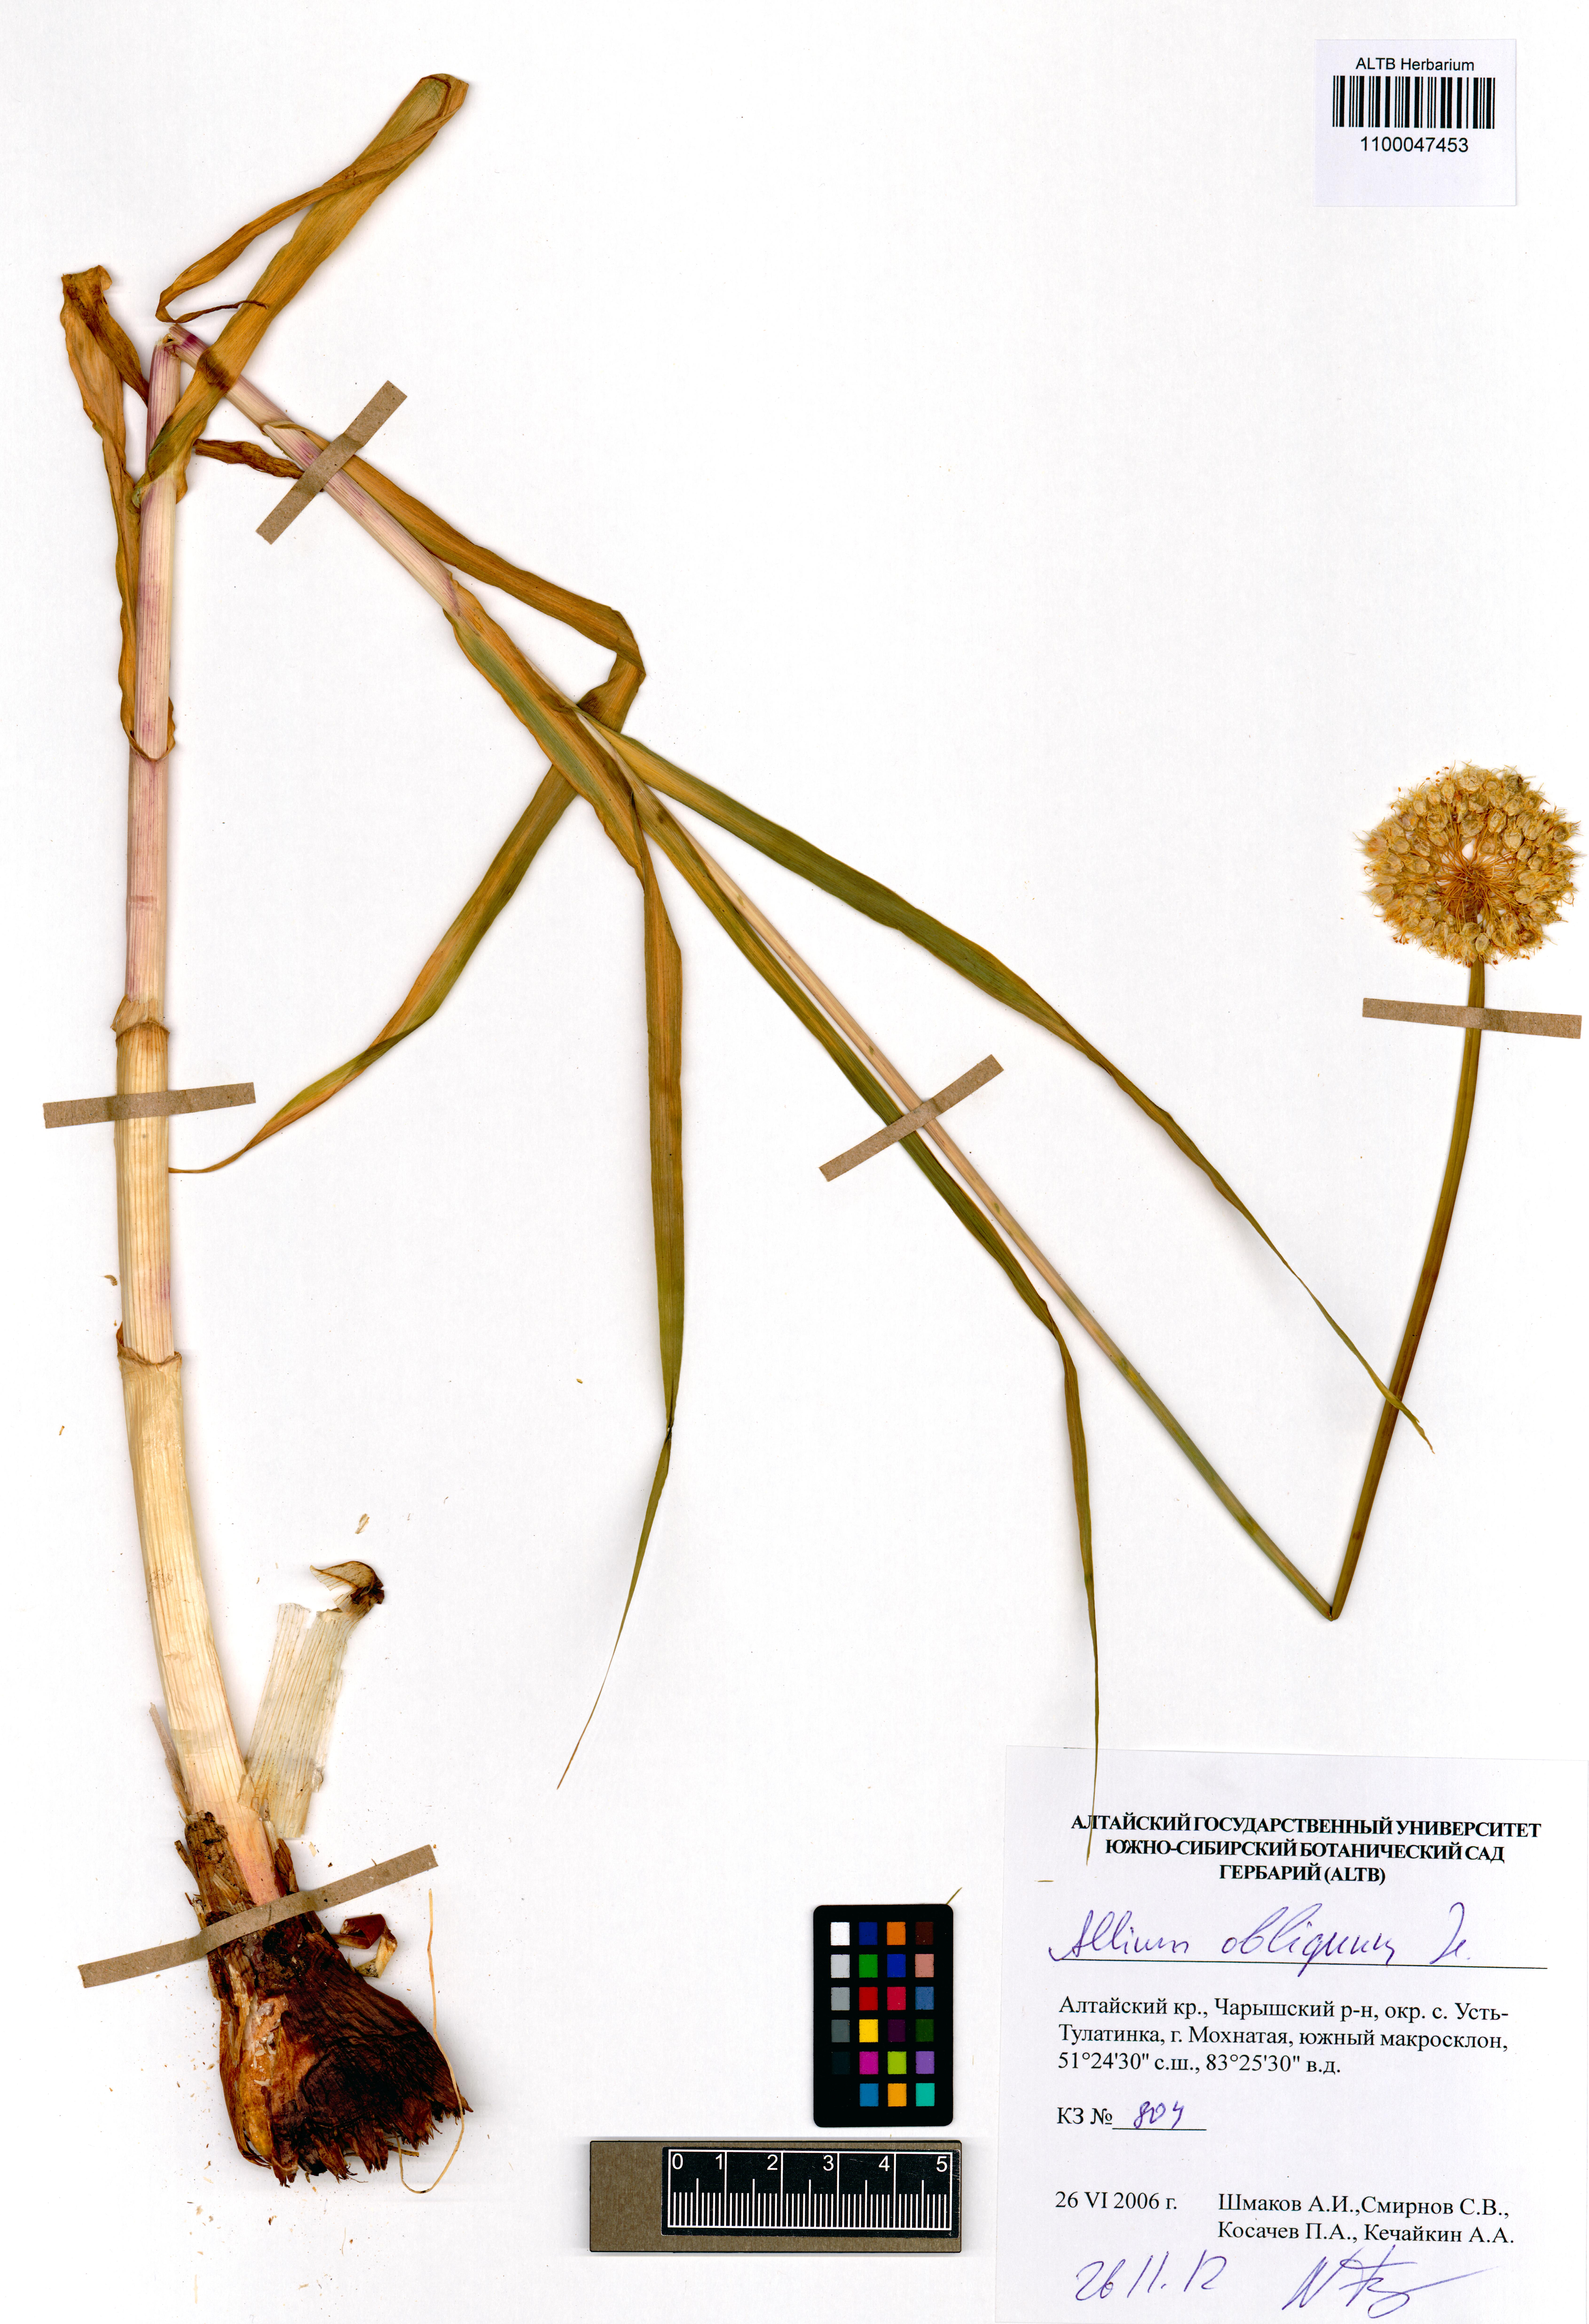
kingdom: Plantae
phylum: Tracheophyta
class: Liliopsida
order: Asparagales
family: Amaryllidaceae
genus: Allium
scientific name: Allium obliquum
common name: Oblique onion
